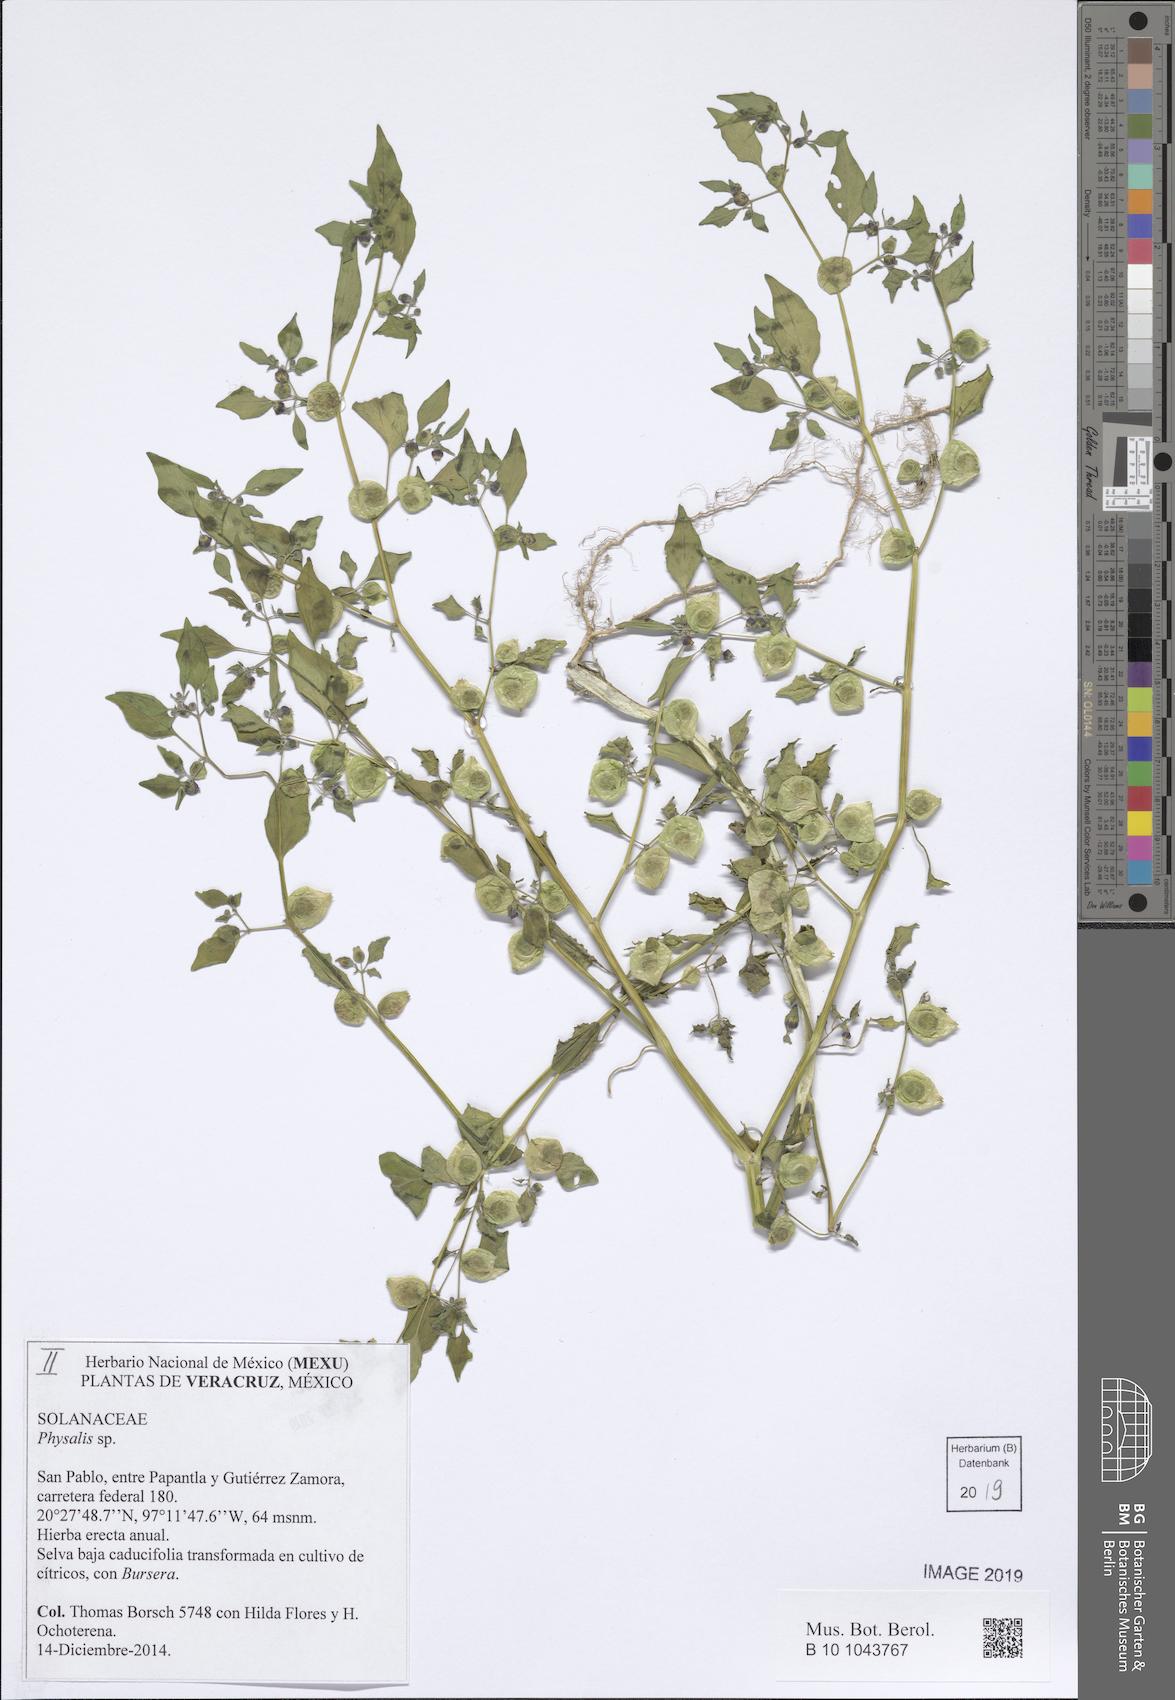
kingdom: Plantae
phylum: Tracheophyta
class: Magnoliopsida
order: Solanales
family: Solanaceae
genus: Physalis
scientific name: Physalis
